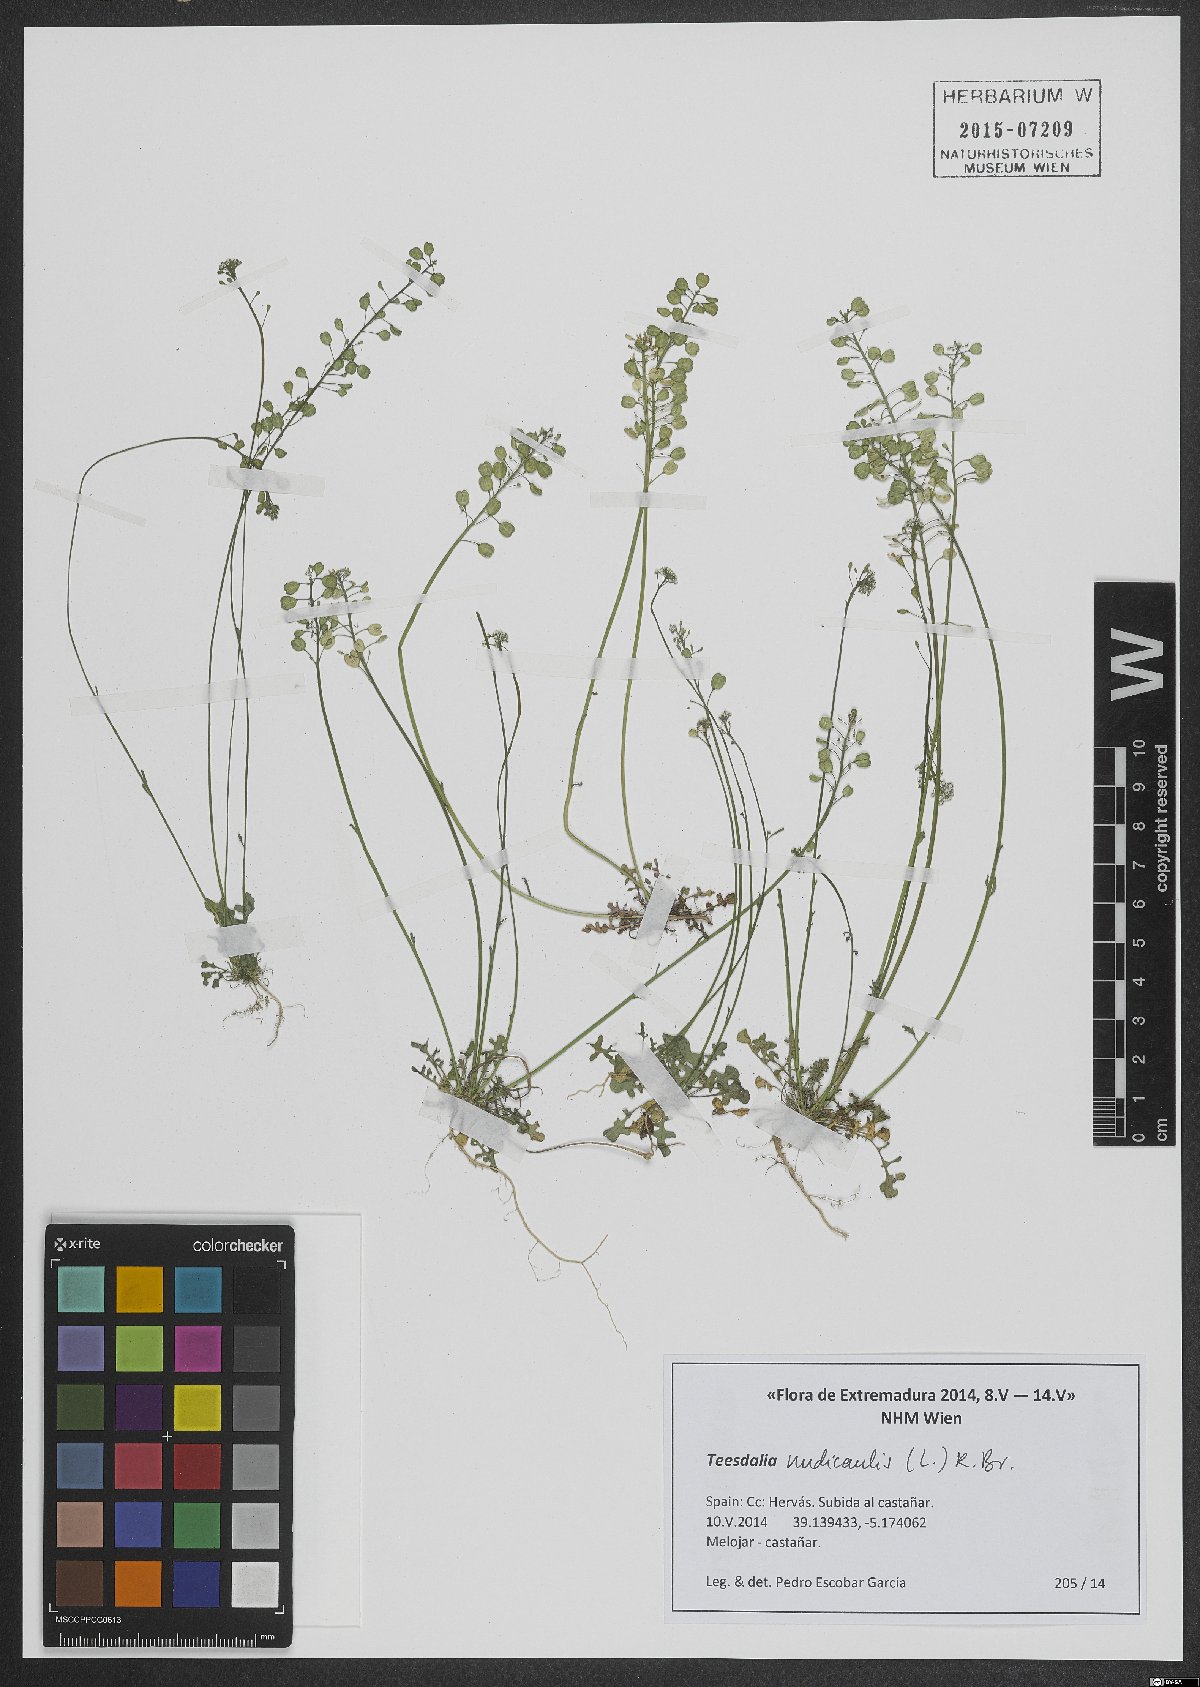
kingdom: Plantae
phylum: Tracheophyta
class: Magnoliopsida
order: Brassicales
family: Brassicaceae
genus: Teesdalia
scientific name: Teesdalia nudicaulis
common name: Shepherd's cress
